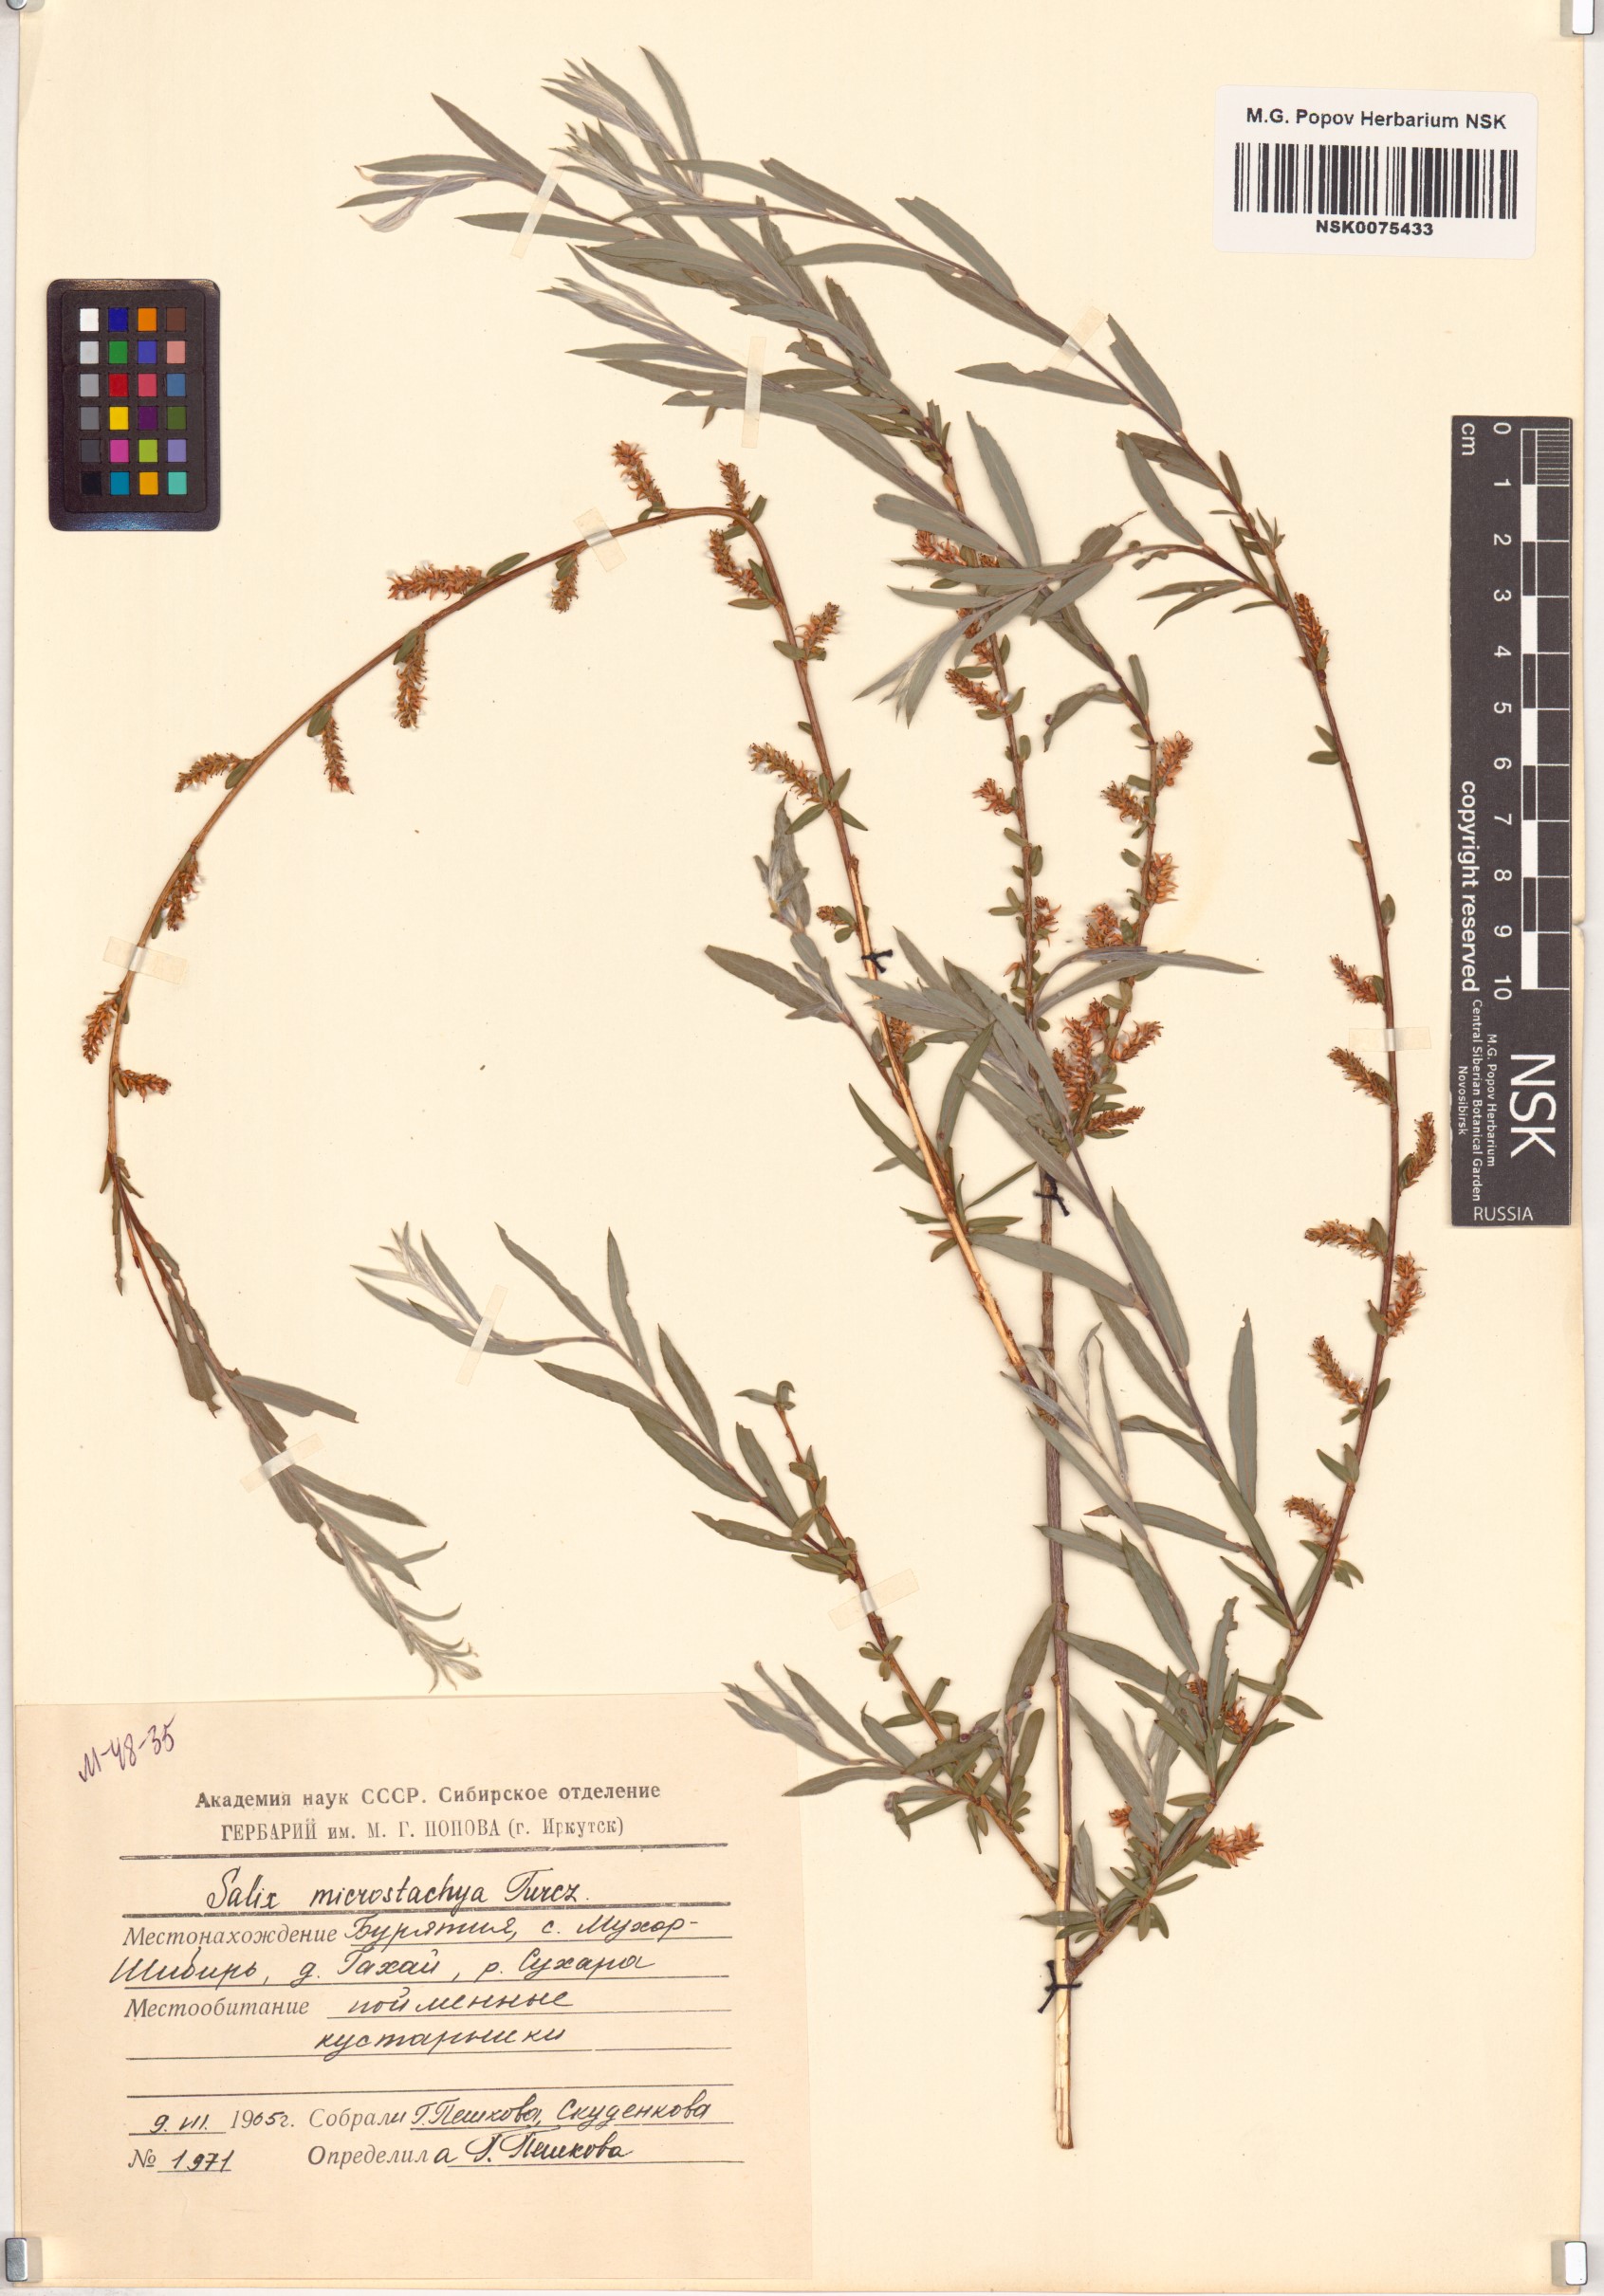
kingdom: Plantae
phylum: Tracheophyta
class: Magnoliopsida
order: Malpighiales
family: Salicaceae
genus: Salix
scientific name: Salix microstachya
